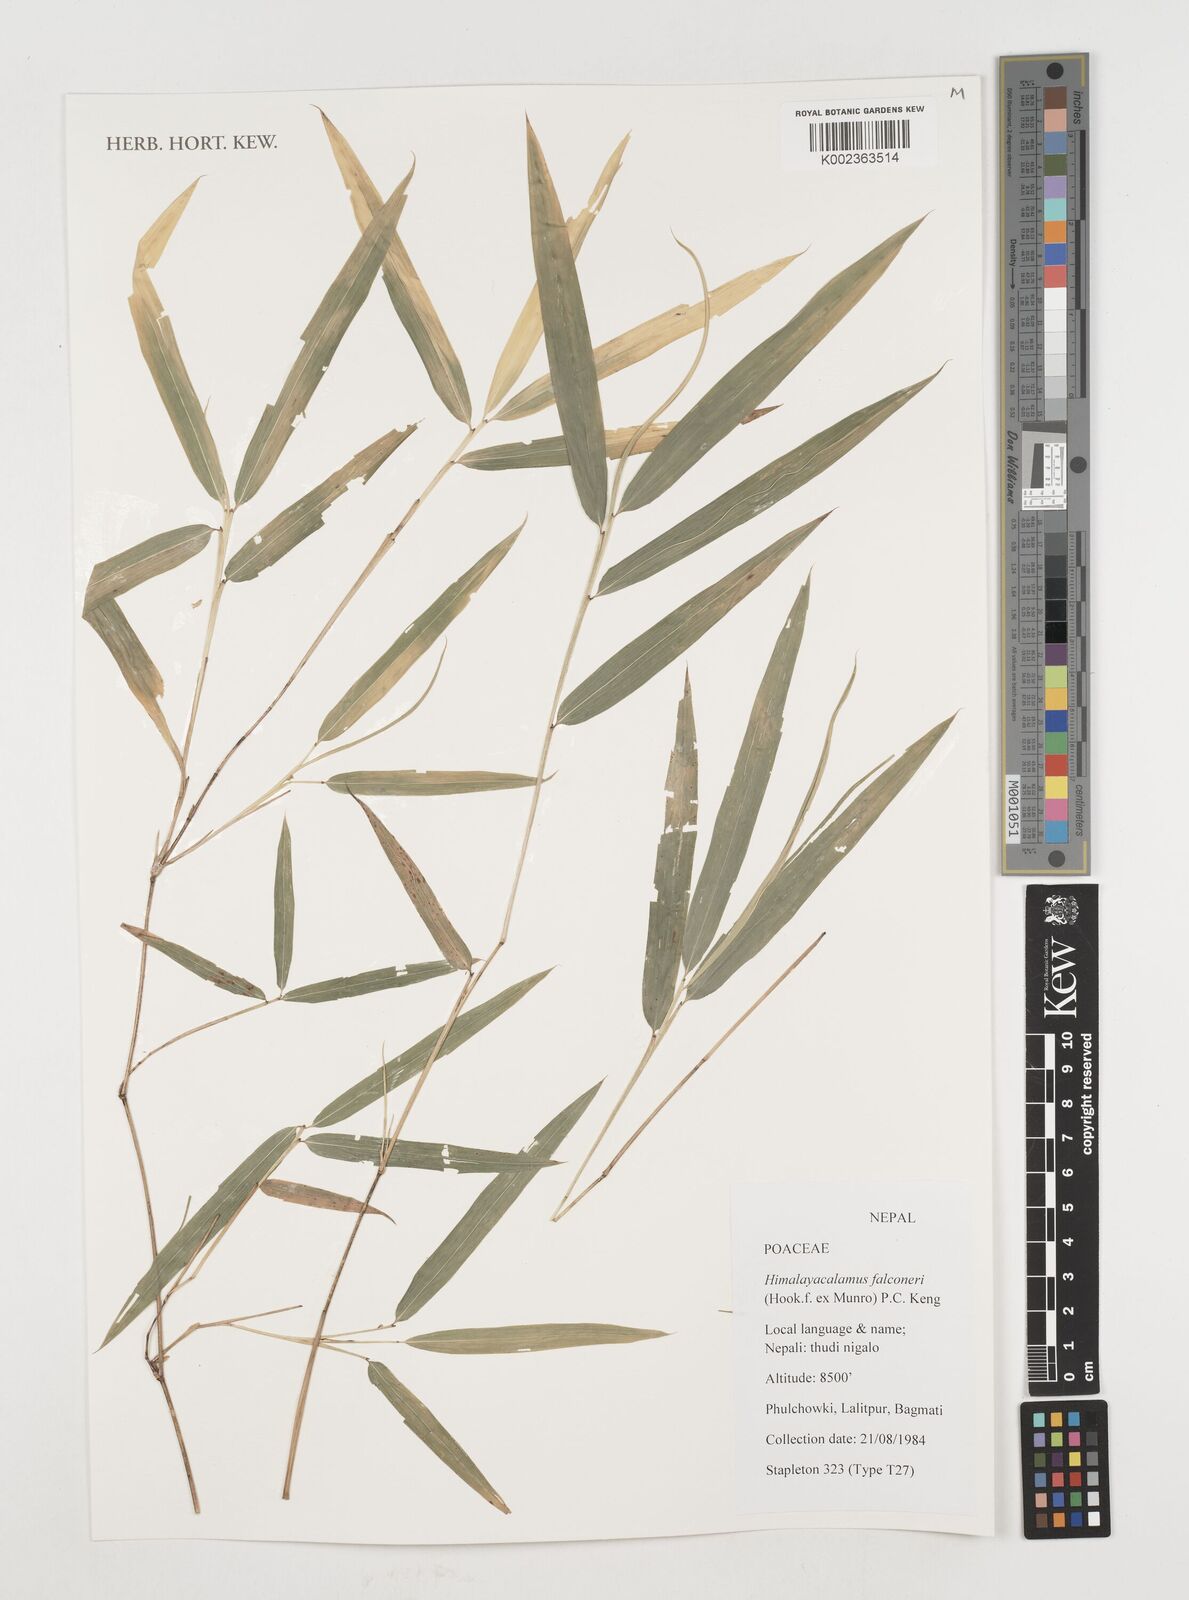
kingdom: Plantae
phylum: Tracheophyta
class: Liliopsida
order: Poales
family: Poaceae
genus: Himalayacalamus
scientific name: Himalayacalamus falconeri
